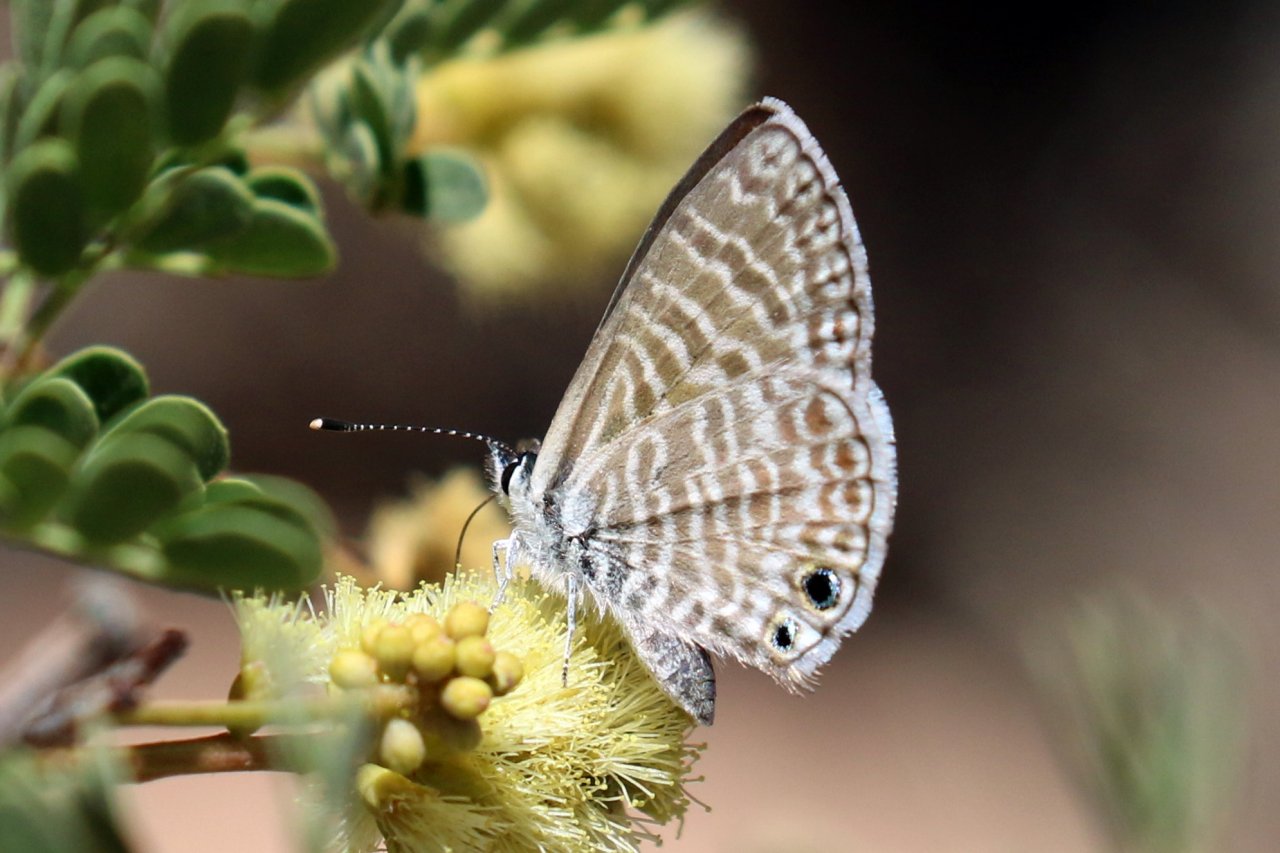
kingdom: Animalia
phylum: Arthropoda
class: Insecta
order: Lepidoptera
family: Lycaenidae
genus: Leptotes
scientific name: Leptotes marina
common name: Marine Blue
